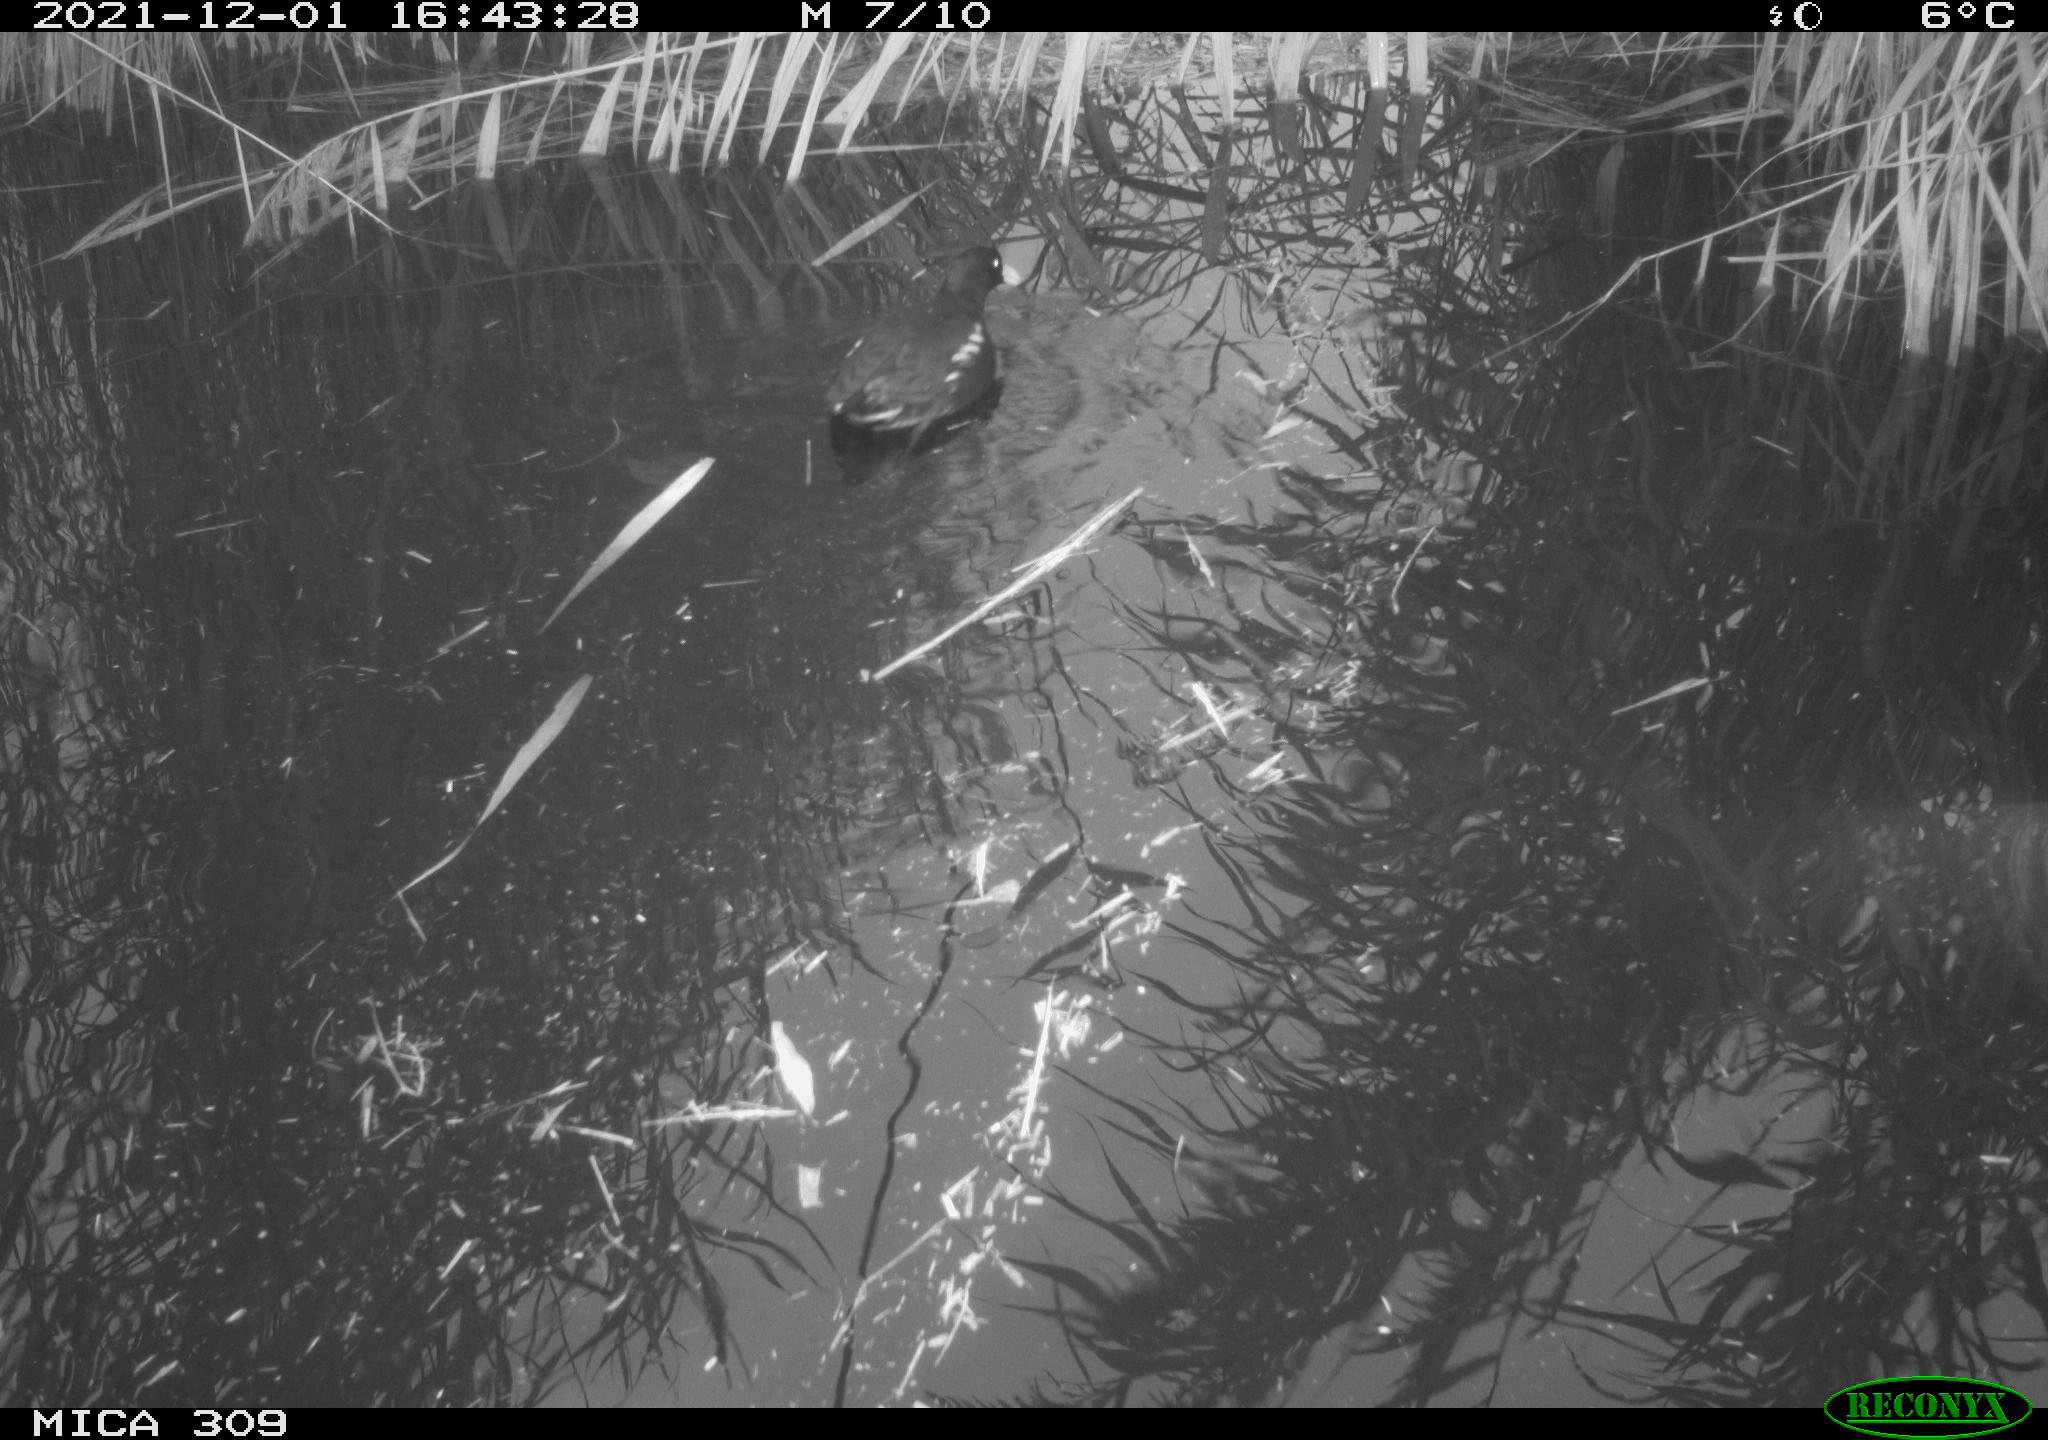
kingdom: Animalia
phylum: Chordata
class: Aves
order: Gruiformes
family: Rallidae
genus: Gallinula
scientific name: Gallinula chloropus
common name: Common moorhen
